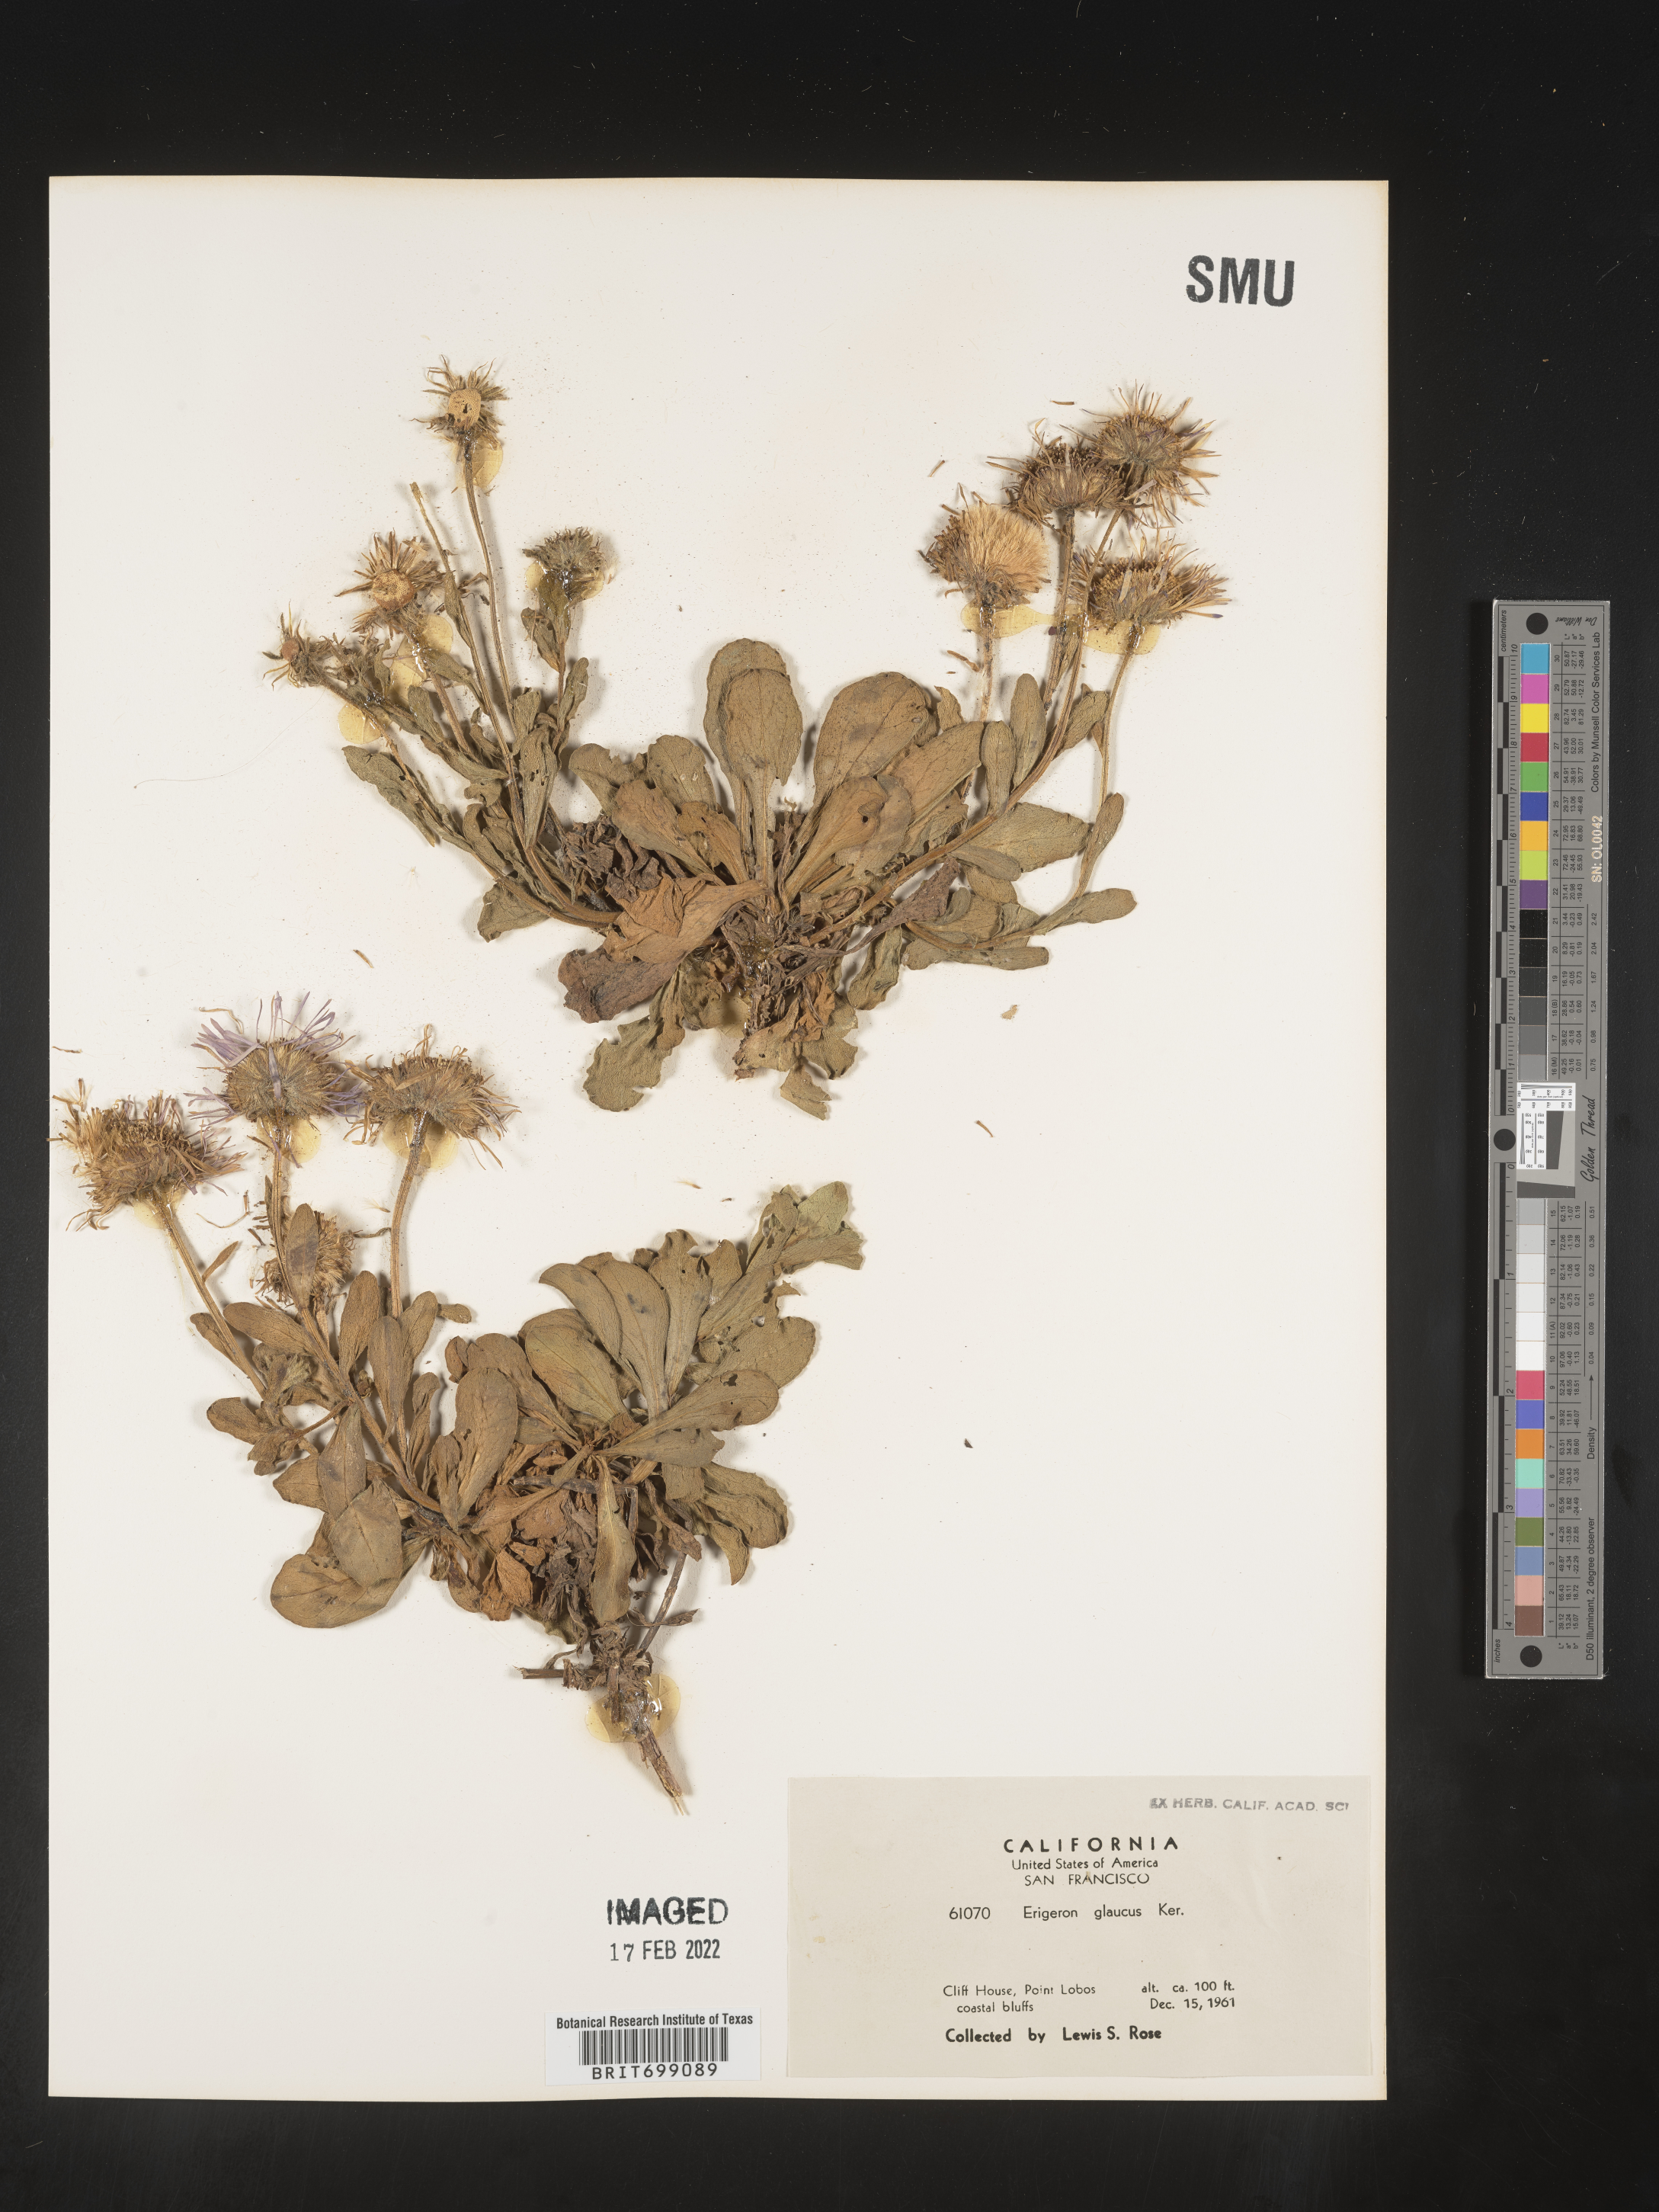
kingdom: Plantae
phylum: Tracheophyta
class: Magnoliopsida
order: Asterales
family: Asteraceae
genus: Erigeron
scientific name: Erigeron glaucus
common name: Seaside daisy
